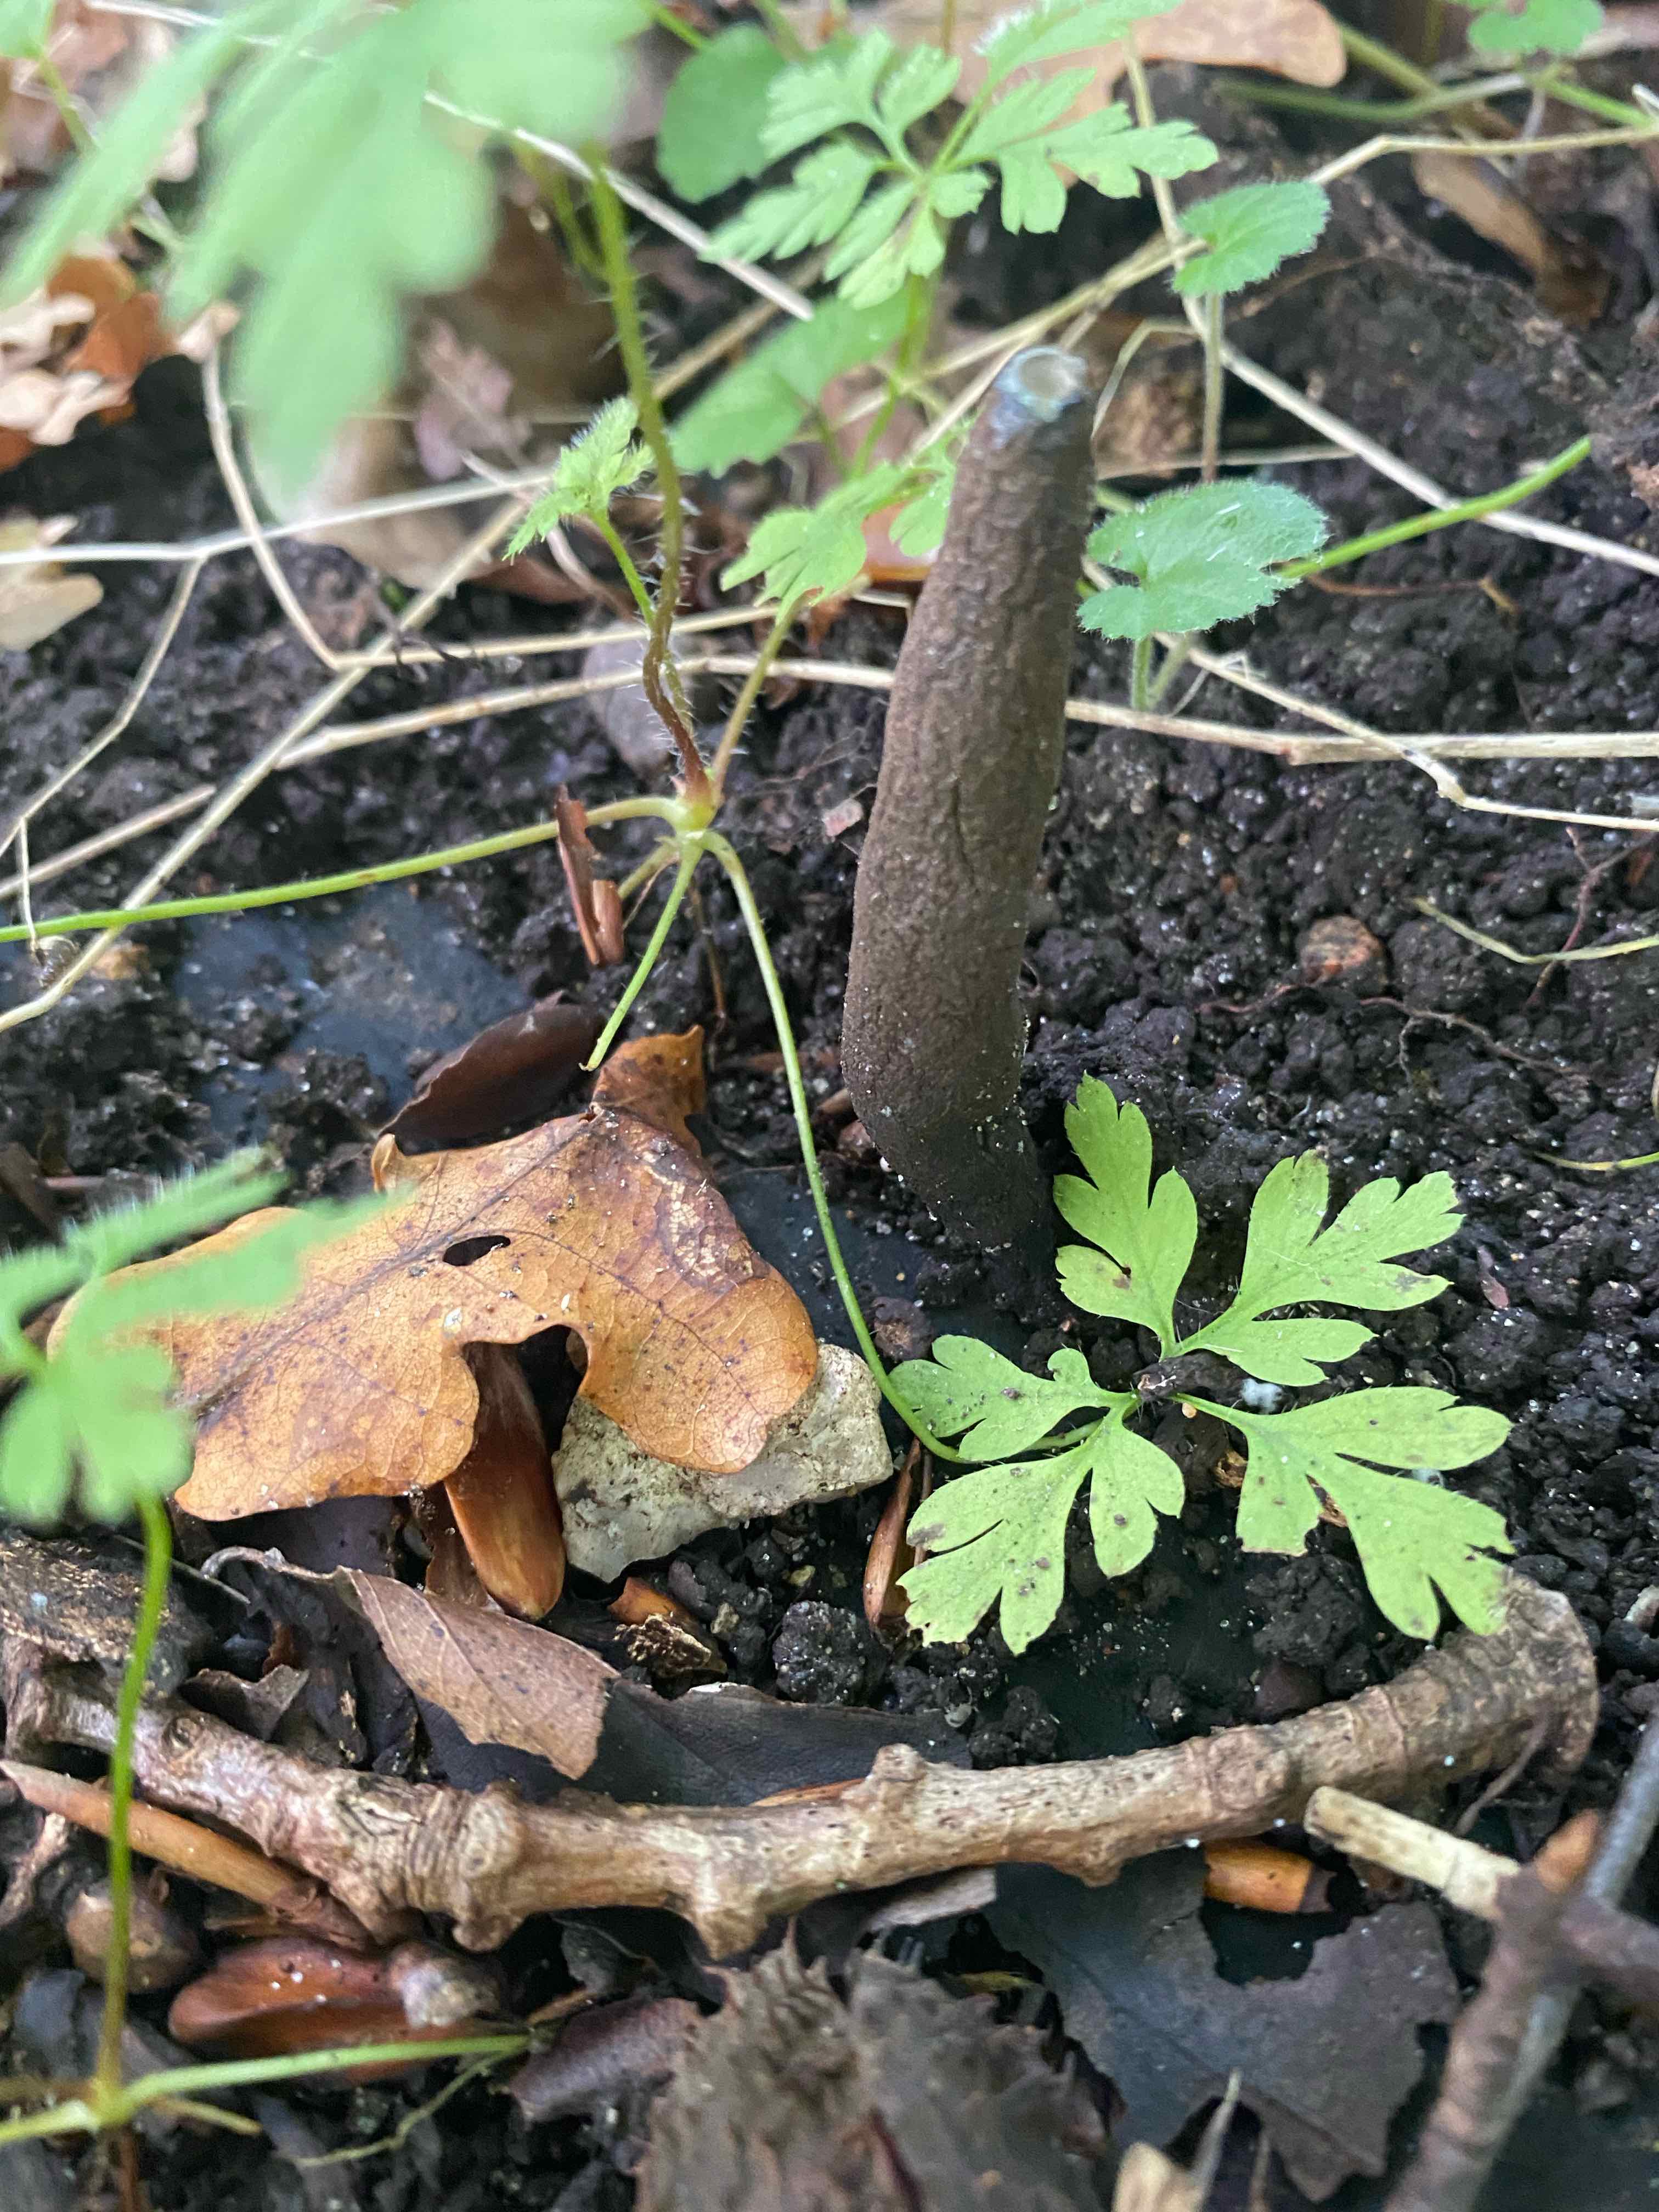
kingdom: Fungi
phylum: Ascomycota
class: Sordariomycetes
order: Xylariales
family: Xylariaceae
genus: Xylaria
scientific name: Xylaria longipes
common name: slank stødsvamp
